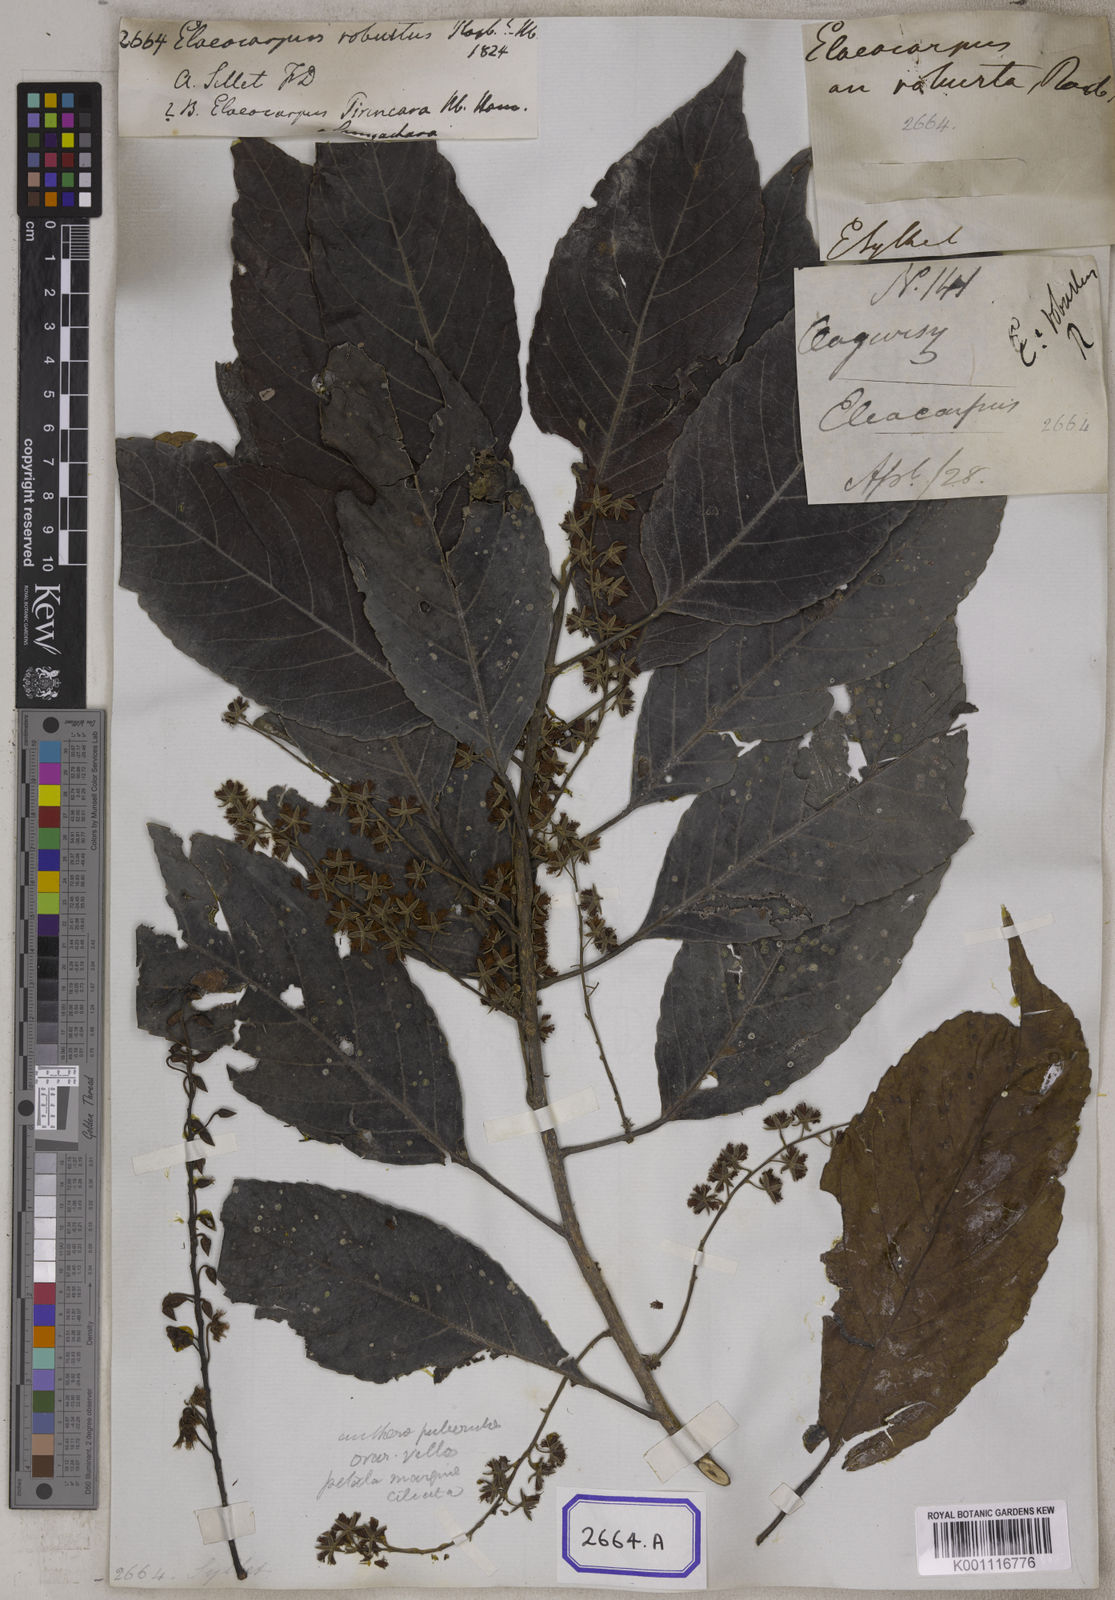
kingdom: Plantae
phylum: Tracheophyta
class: Magnoliopsida
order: Oxalidales
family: Elaeocarpaceae
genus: Elaeocarpus
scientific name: Elaeocarpus
